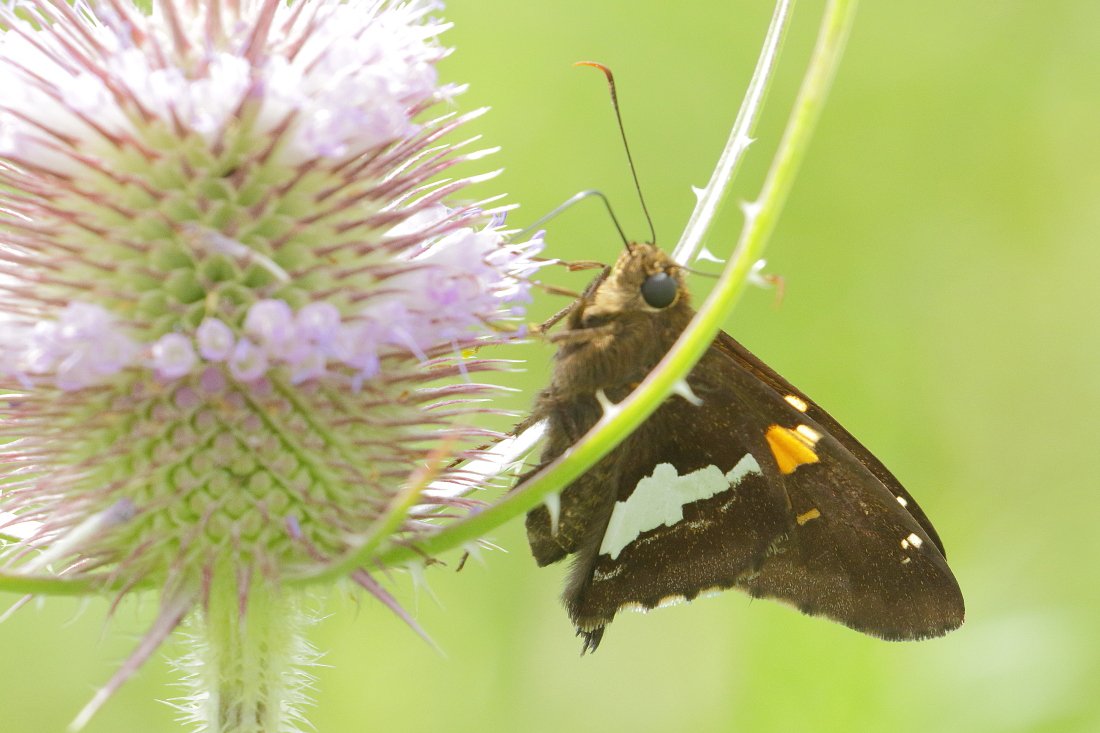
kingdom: Animalia
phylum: Arthropoda
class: Insecta
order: Lepidoptera
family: Hesperiidae
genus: Epargyreus
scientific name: Epargyreus clarus
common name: Silver-spotted Skipper
